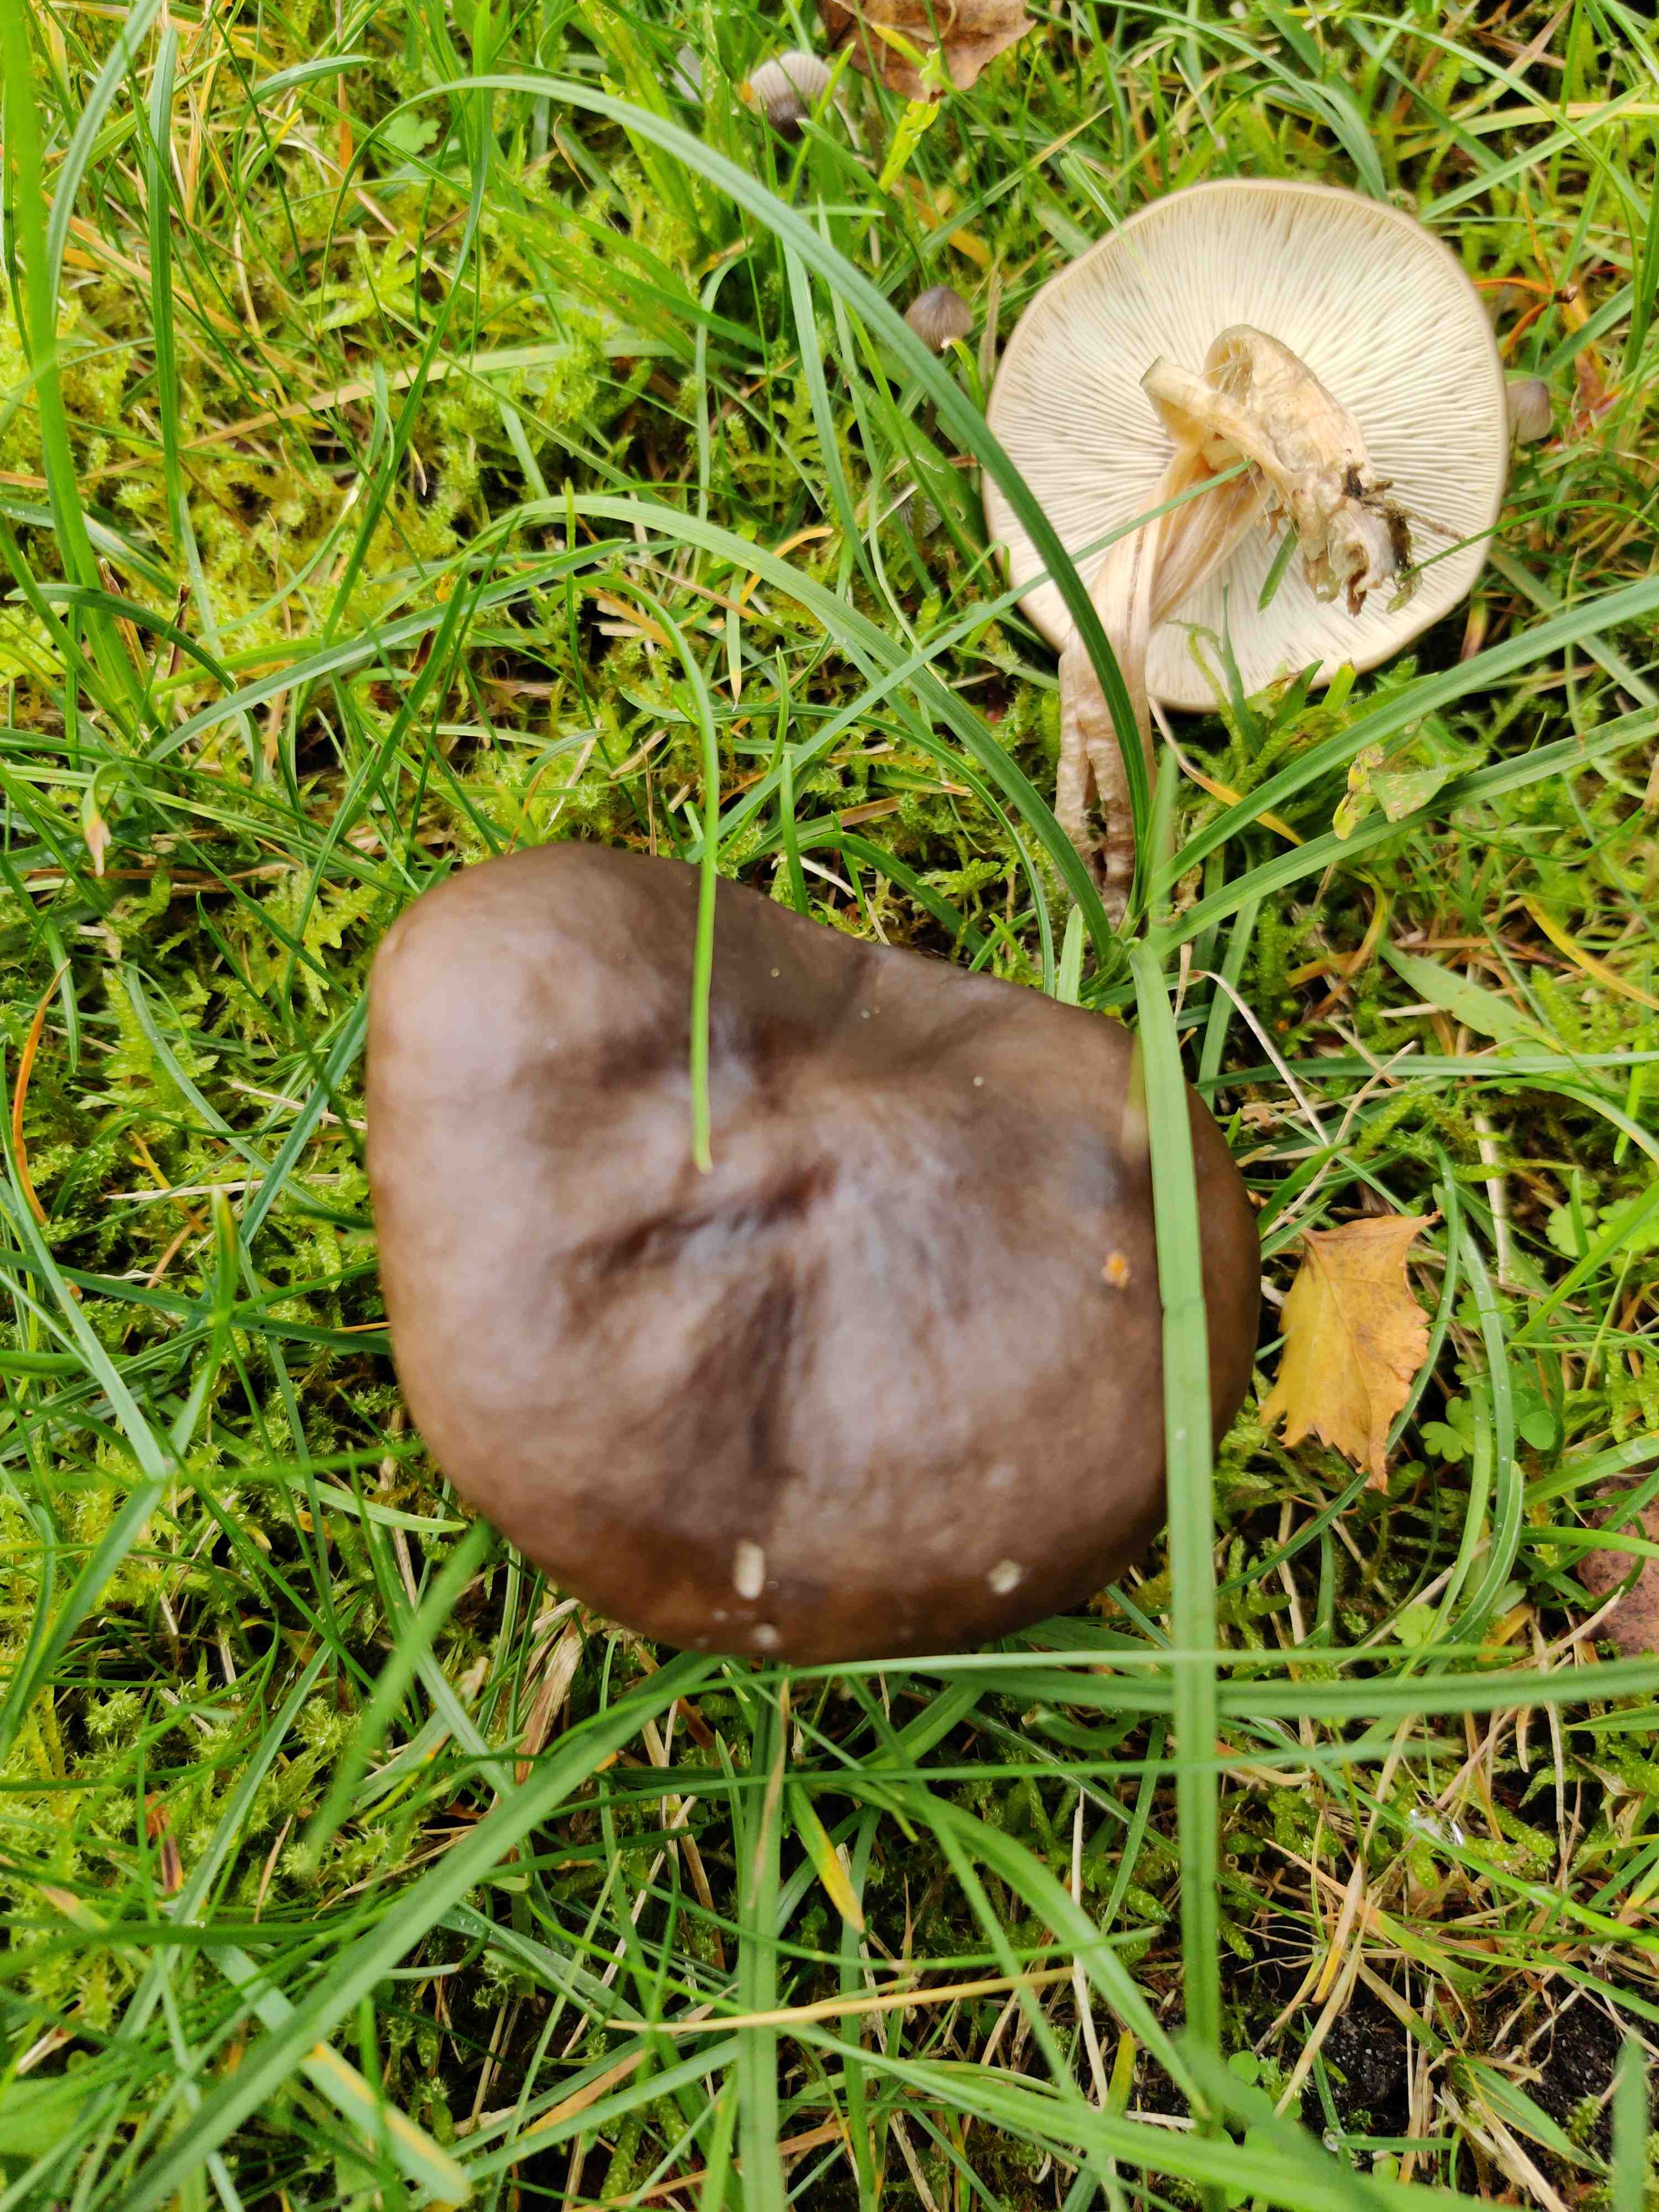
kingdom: Fungi
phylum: Basidiomycota
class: Agaricomycetes
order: Agaricales
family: Tricholomataceae
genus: Melanoleuca
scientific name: Melanoleuca
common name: munkehat
